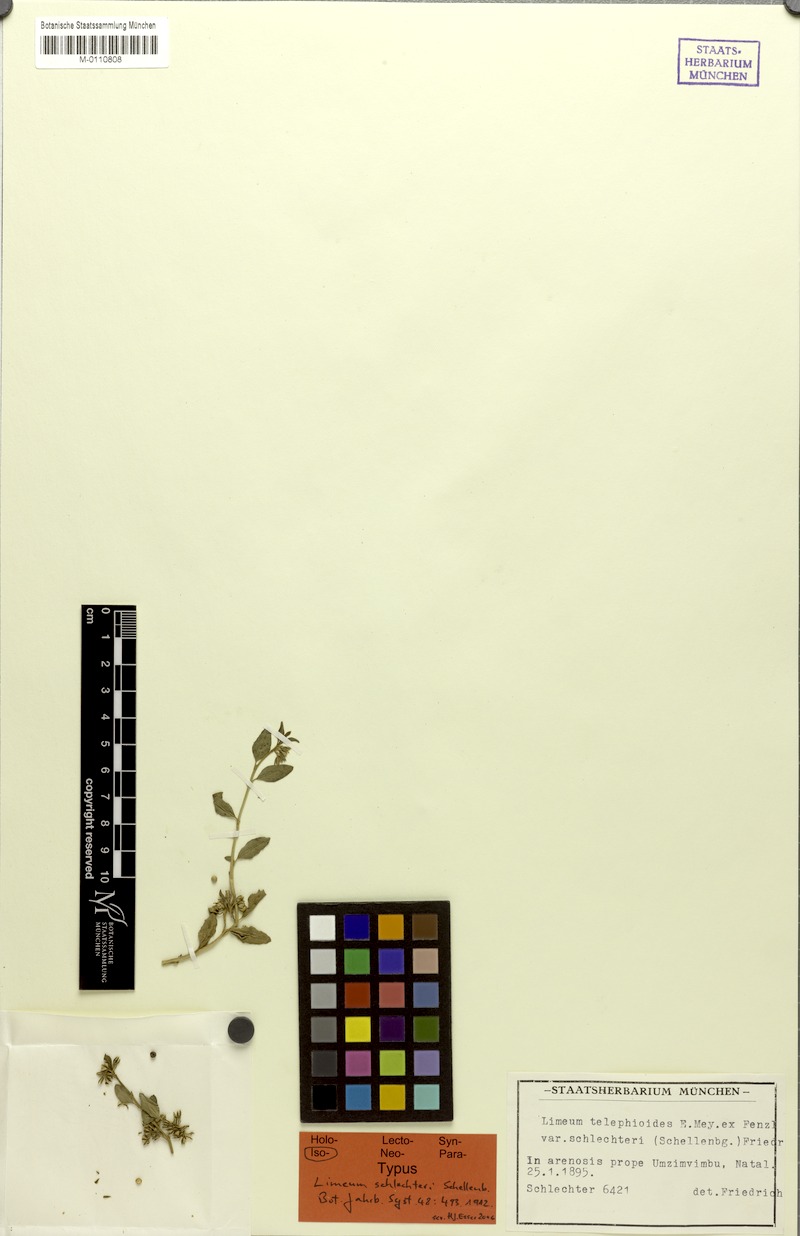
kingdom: Plantae
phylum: Tracheophyta
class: Magnoliopsida
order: Caryophyllales
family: Limeaceae
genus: Limeum
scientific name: Limeum telephioides
